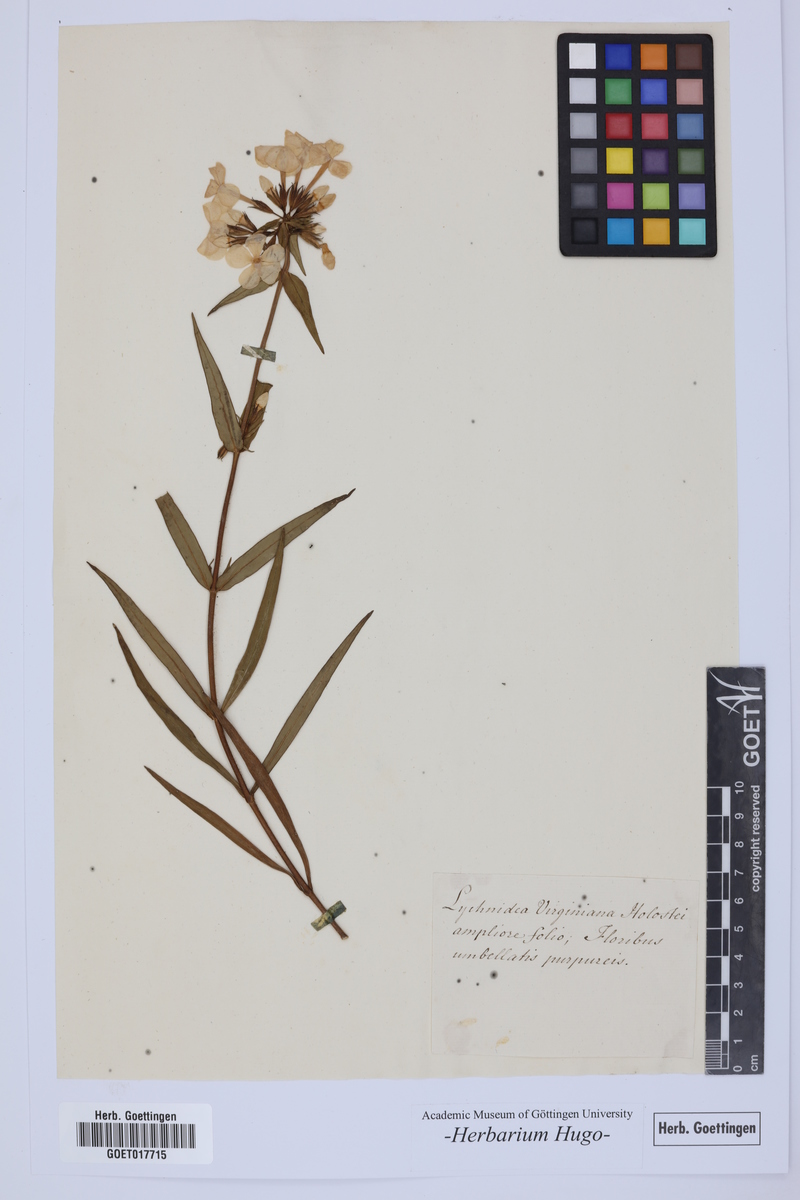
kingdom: Plantae
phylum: Tracheophyta
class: Magnoliopsida
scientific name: Magnoliopsida
